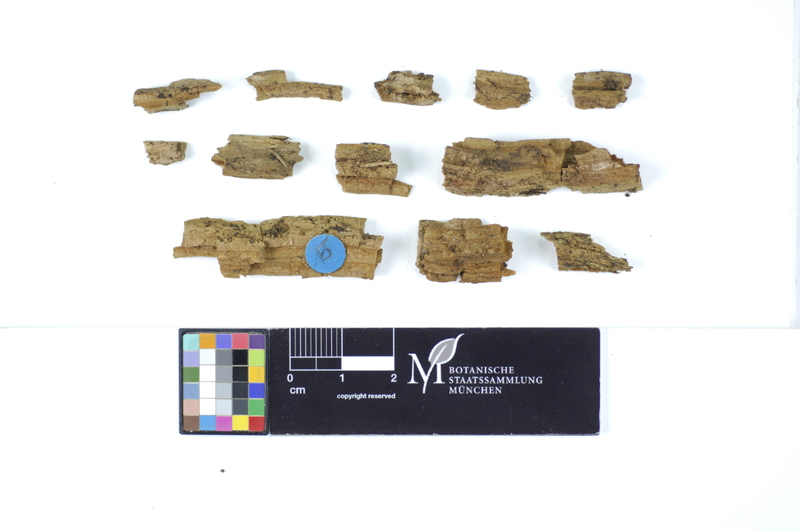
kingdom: Plantae
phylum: Tracheophyta
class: Pinopsida
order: Pinales
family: Pinaceae
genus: Picea
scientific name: Picea
